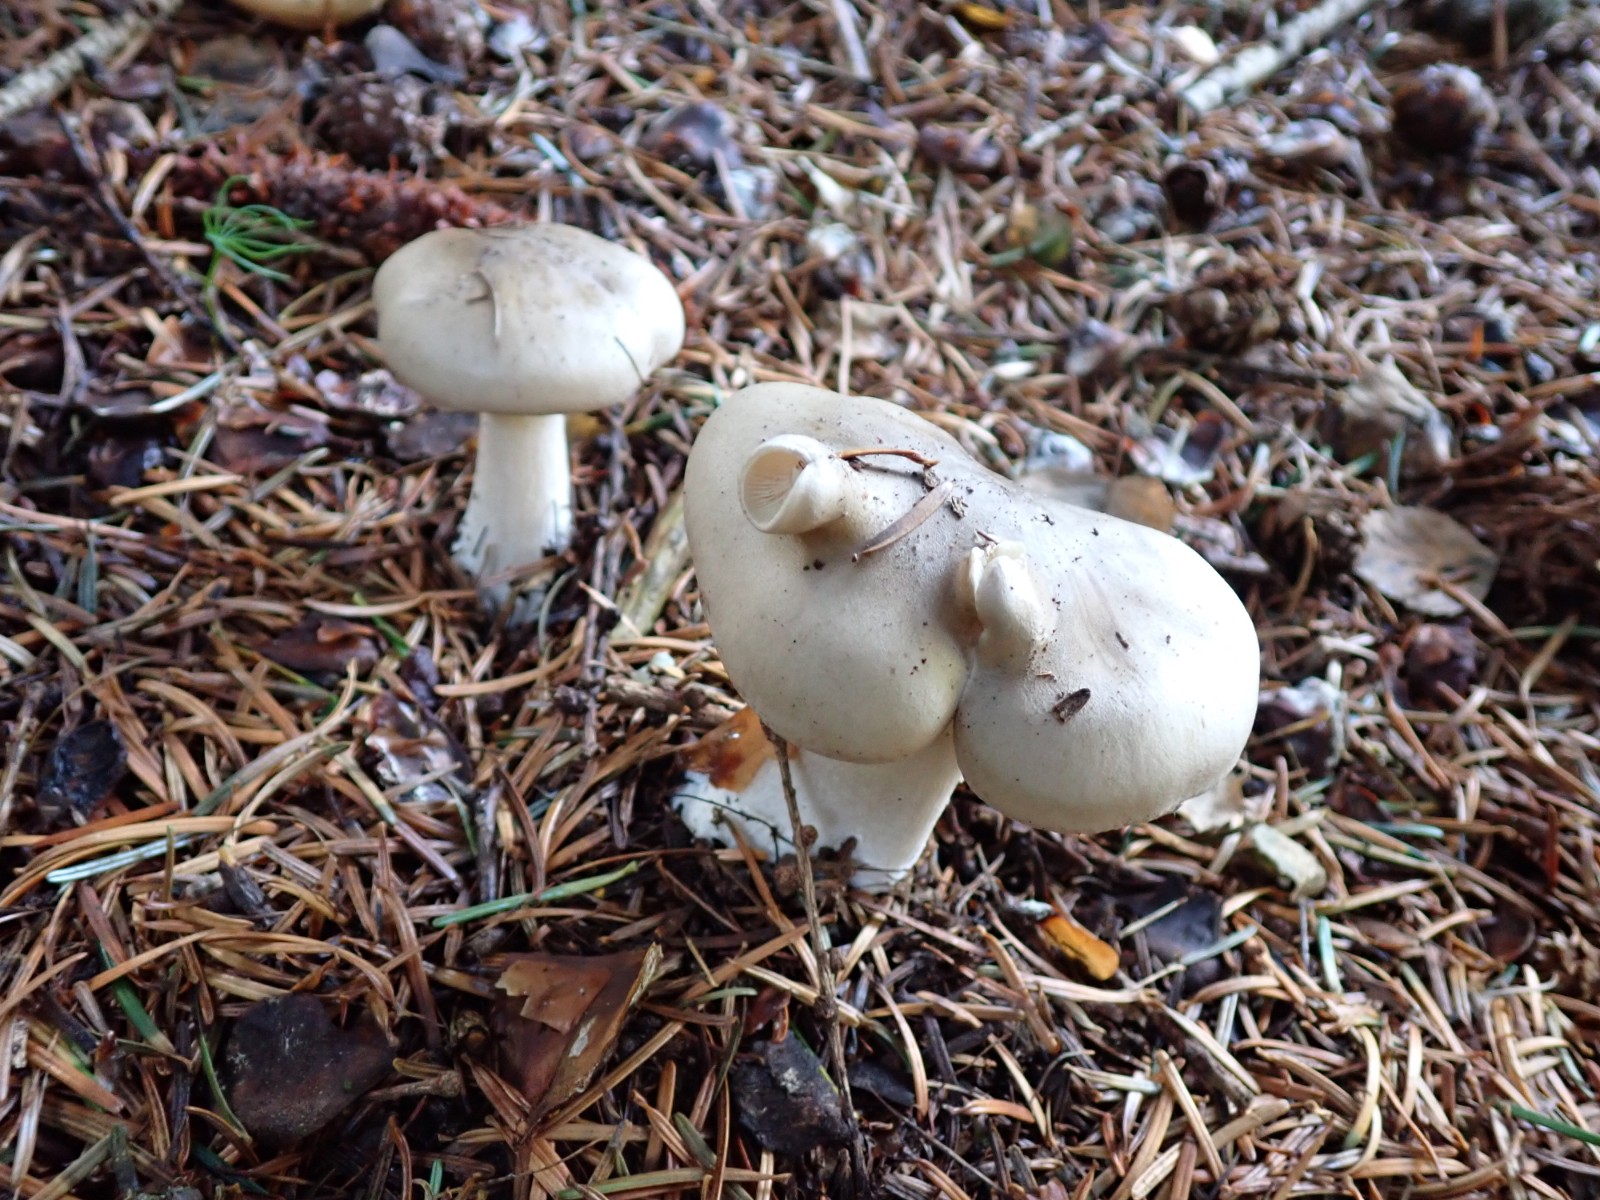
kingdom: Fungi
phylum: Basidiomycota
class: Agaricomycetes
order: Agaricales
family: Tricholomataceae
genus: Clitocybe
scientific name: Clitocybe nebularis
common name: tåge-tragthat
